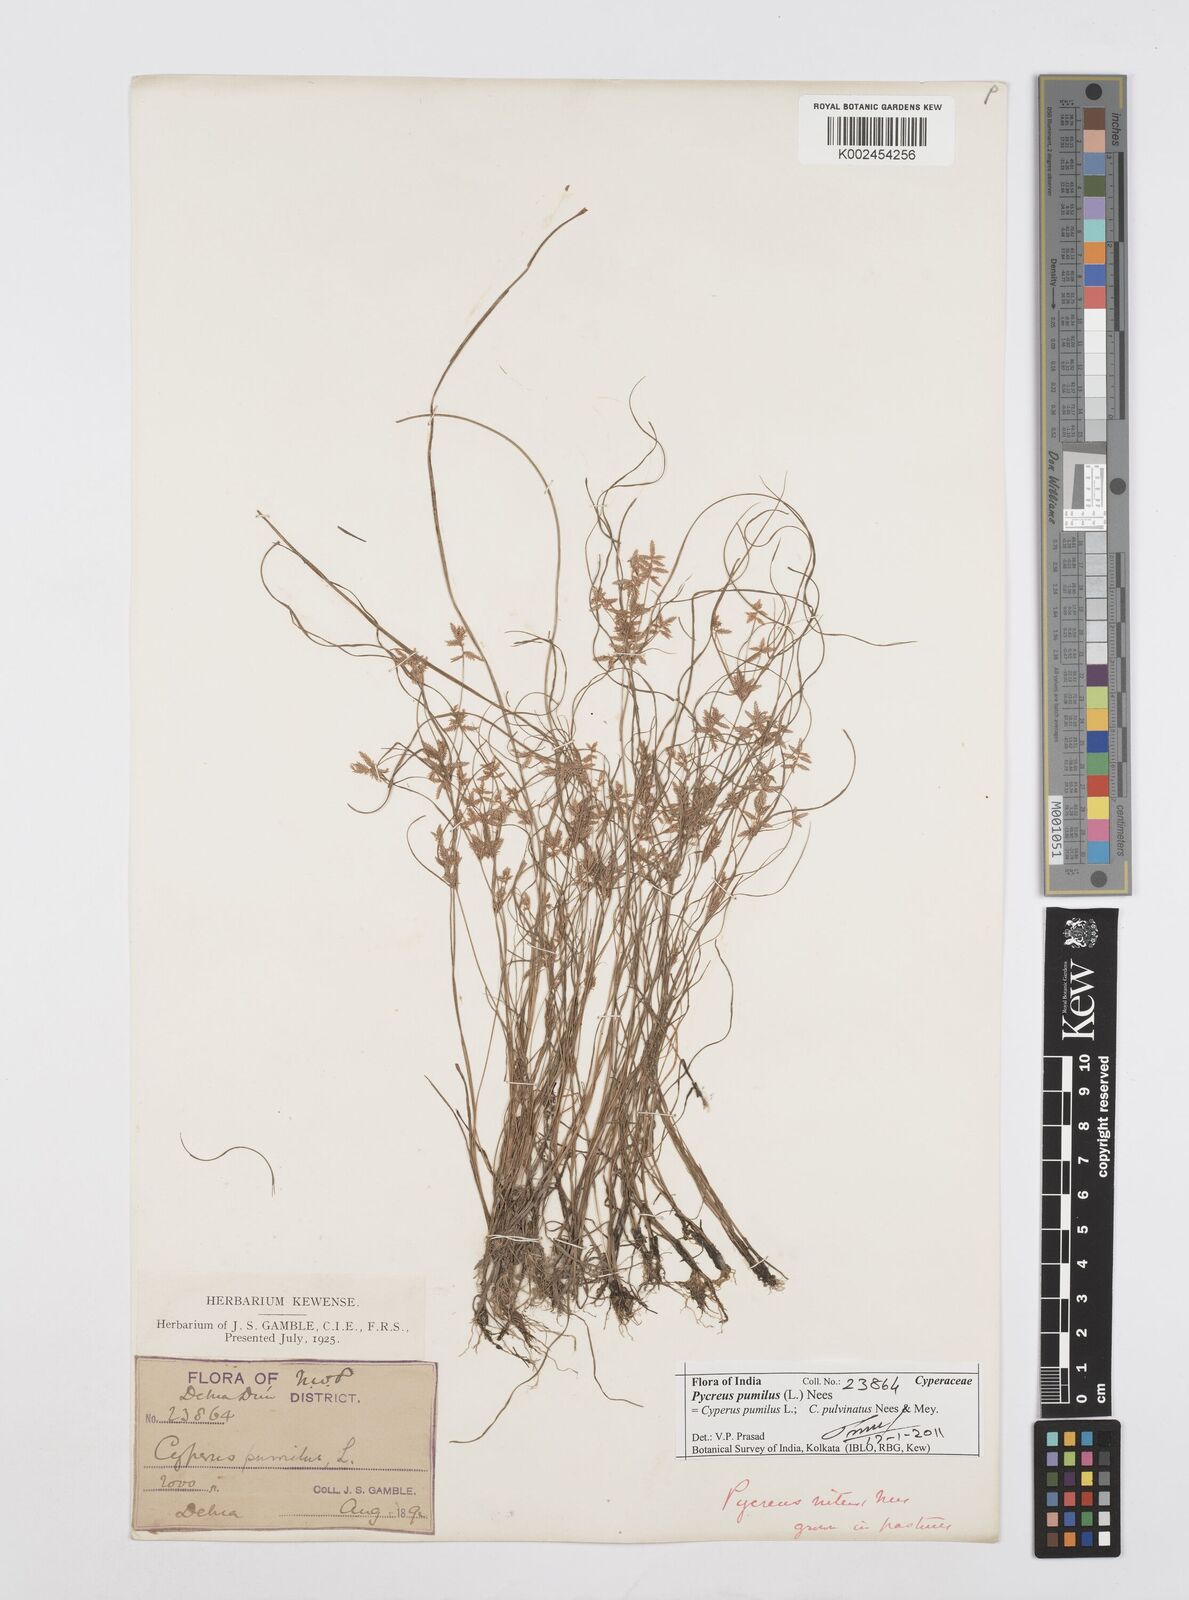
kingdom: Plantae
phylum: Tracheophyta
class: Liliopsida
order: Poales
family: Cyperaceae
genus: Cyperus
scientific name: Cyperus pumilus
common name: Low flatsedge
